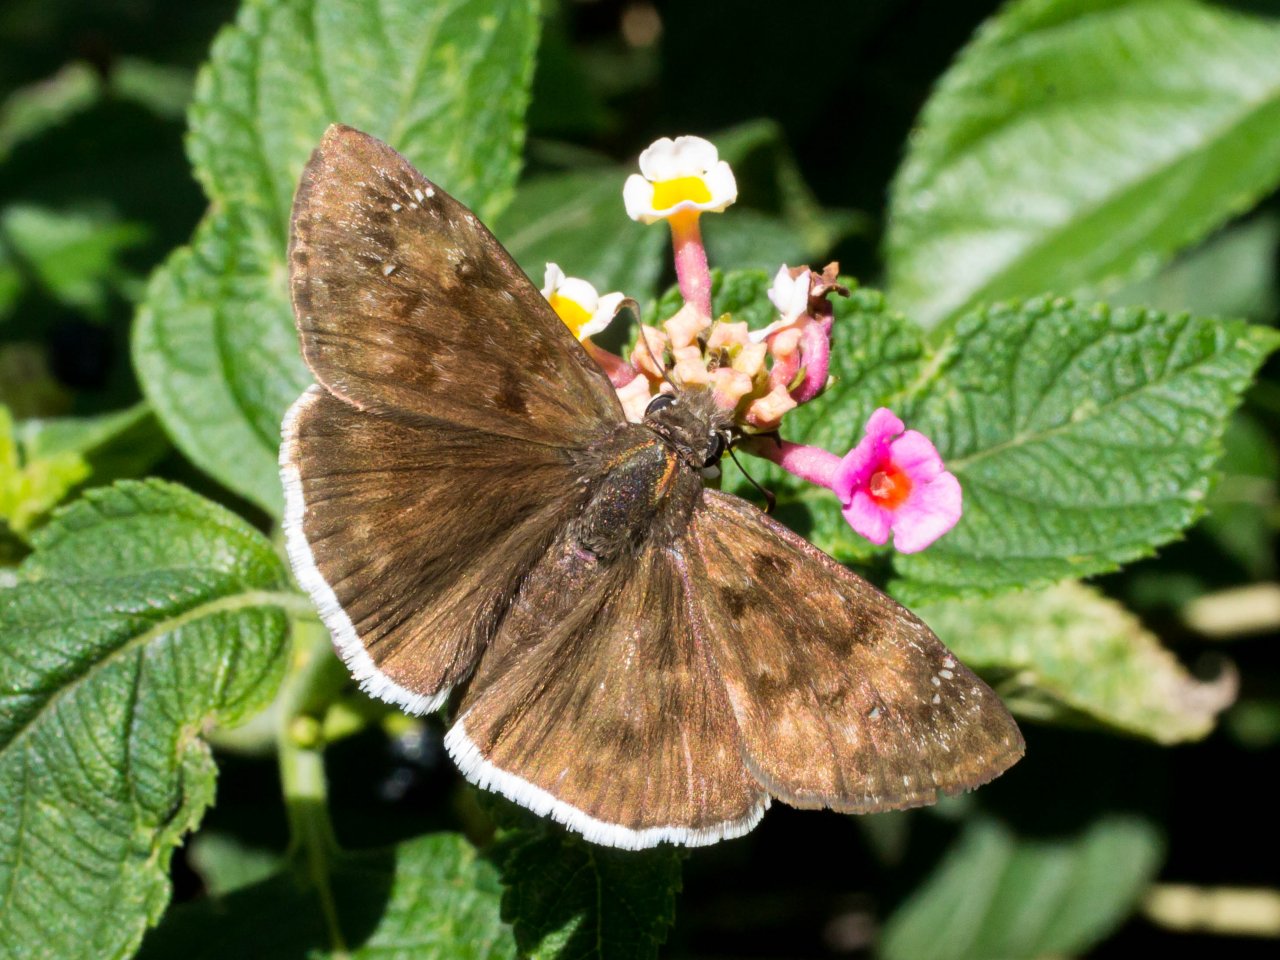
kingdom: Animalia
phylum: Arthropoda
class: Insecta
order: Lepidoptera
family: Hesperiidae
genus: Erynnis
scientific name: Erynnis tristis
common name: Mournful Duskywing
